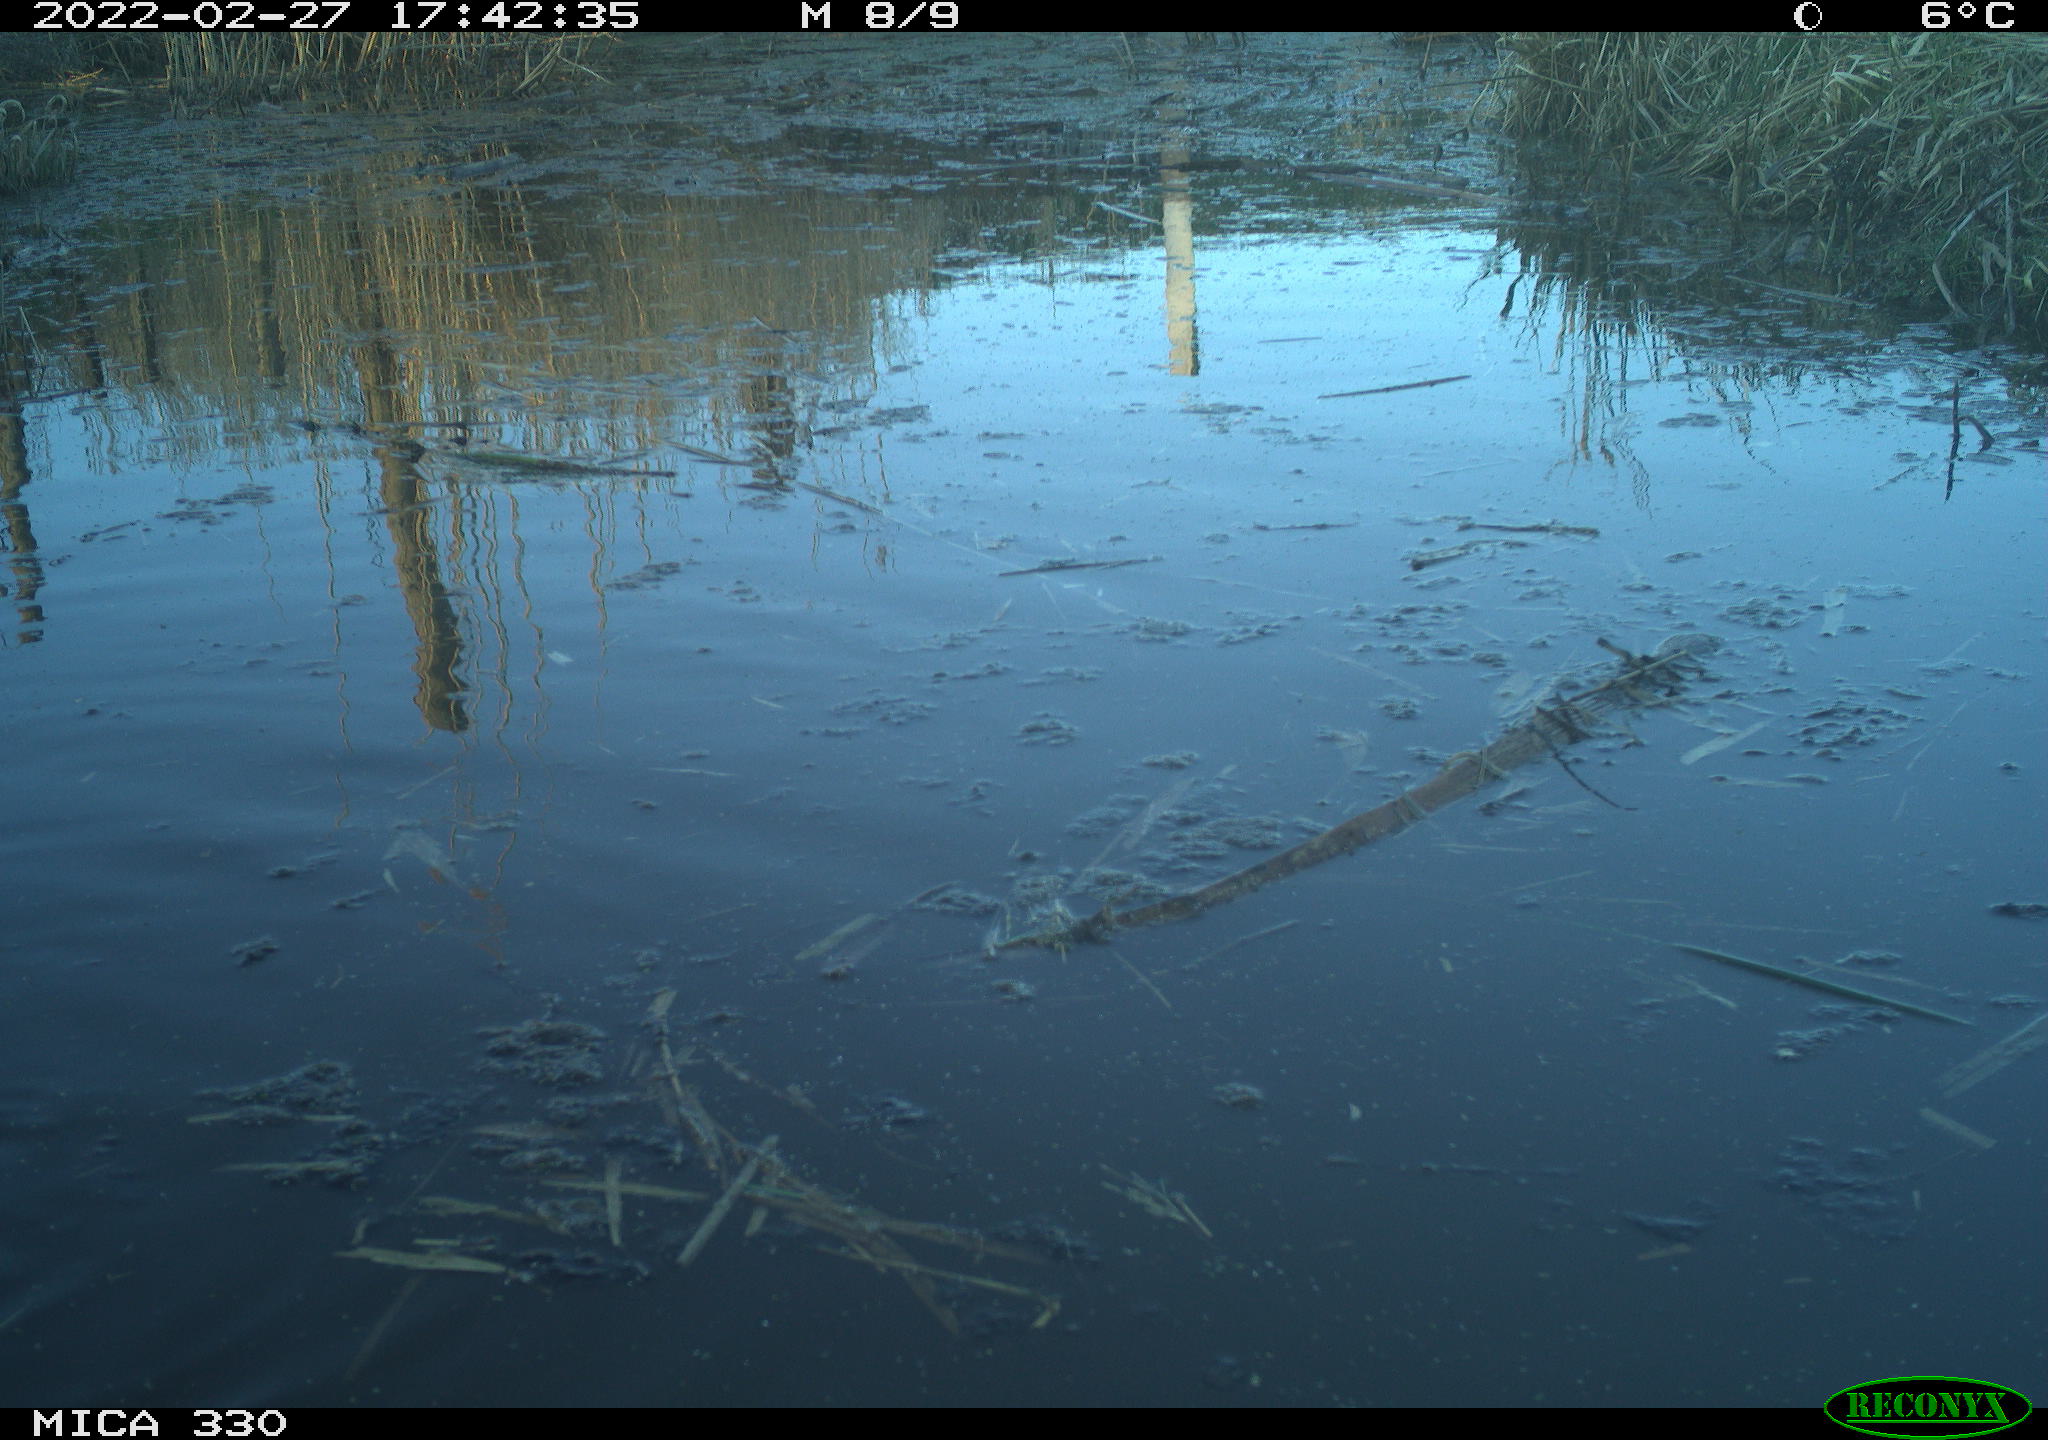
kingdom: Animalia
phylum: Chordata
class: Aves
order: Gruiformes
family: Rallidae
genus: Gallinula
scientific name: Gallinula chloropus
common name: Common moorhen
